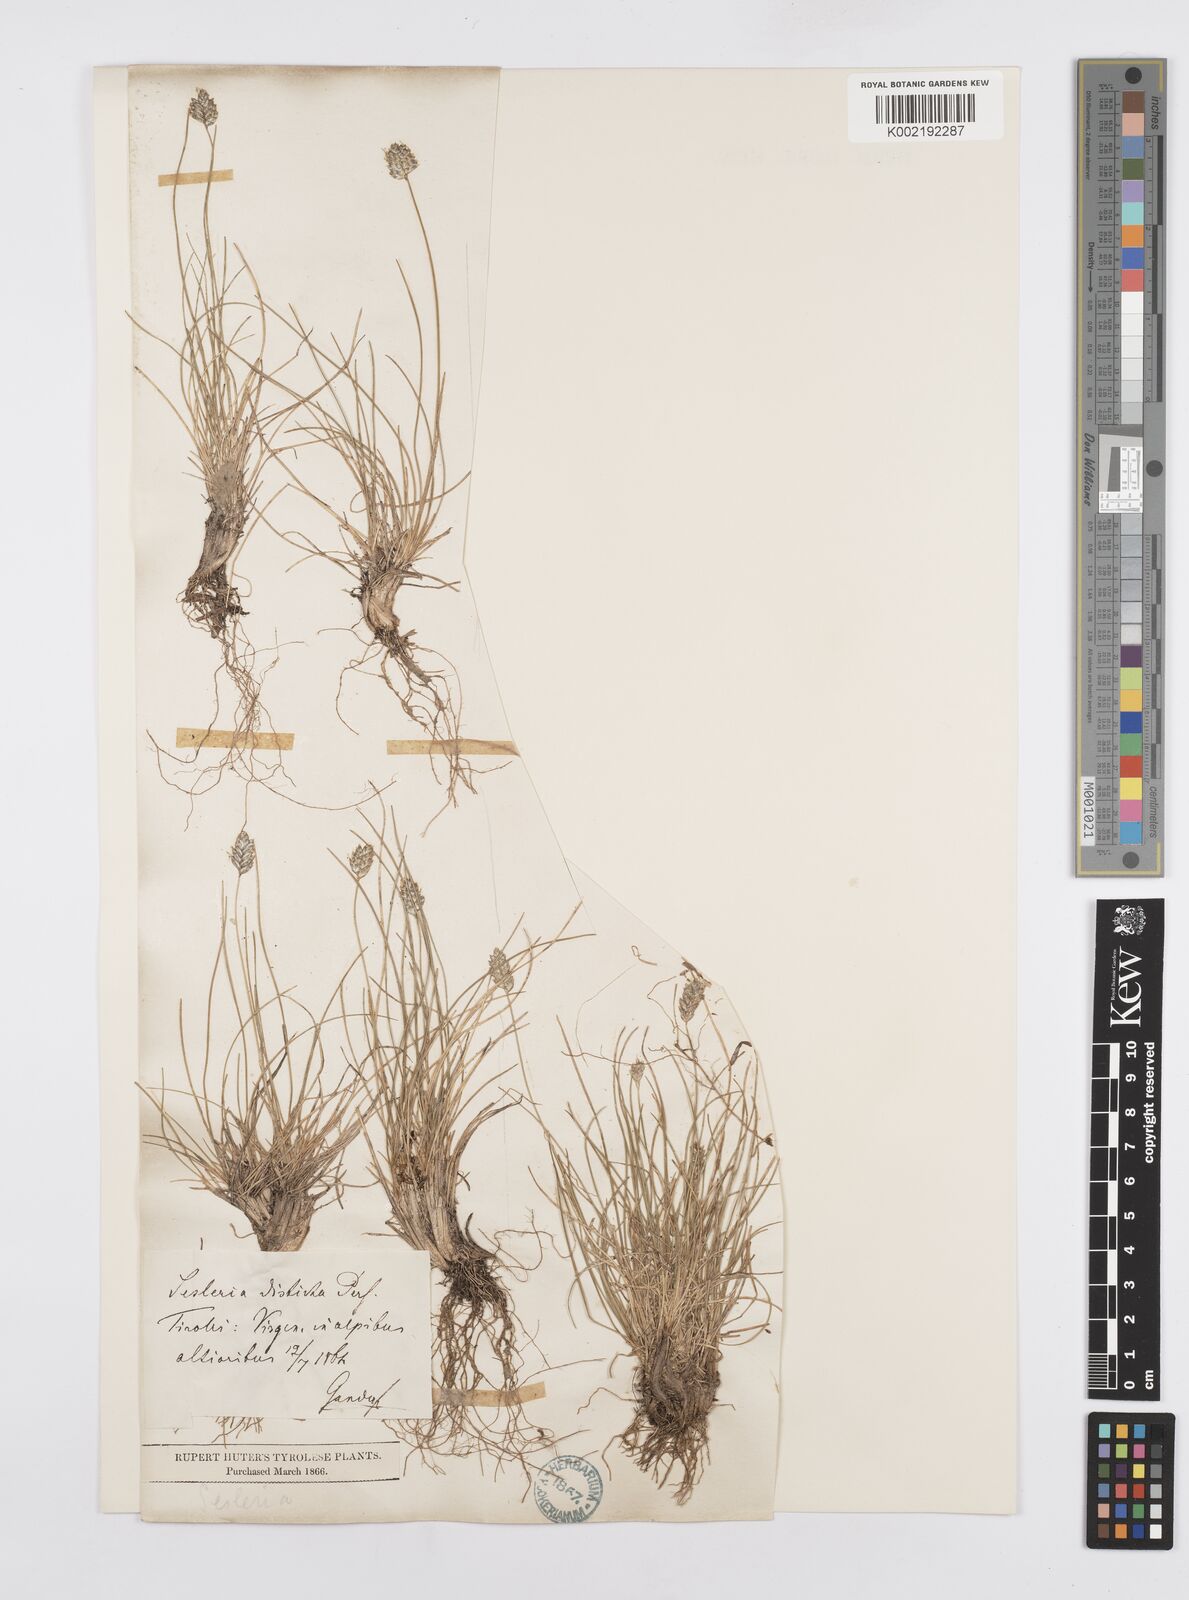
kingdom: Plantae
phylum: Tracheophyta
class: Liliopsida
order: Poales
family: Poaceae
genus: Oreochloa
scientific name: Oreochloa disticha
